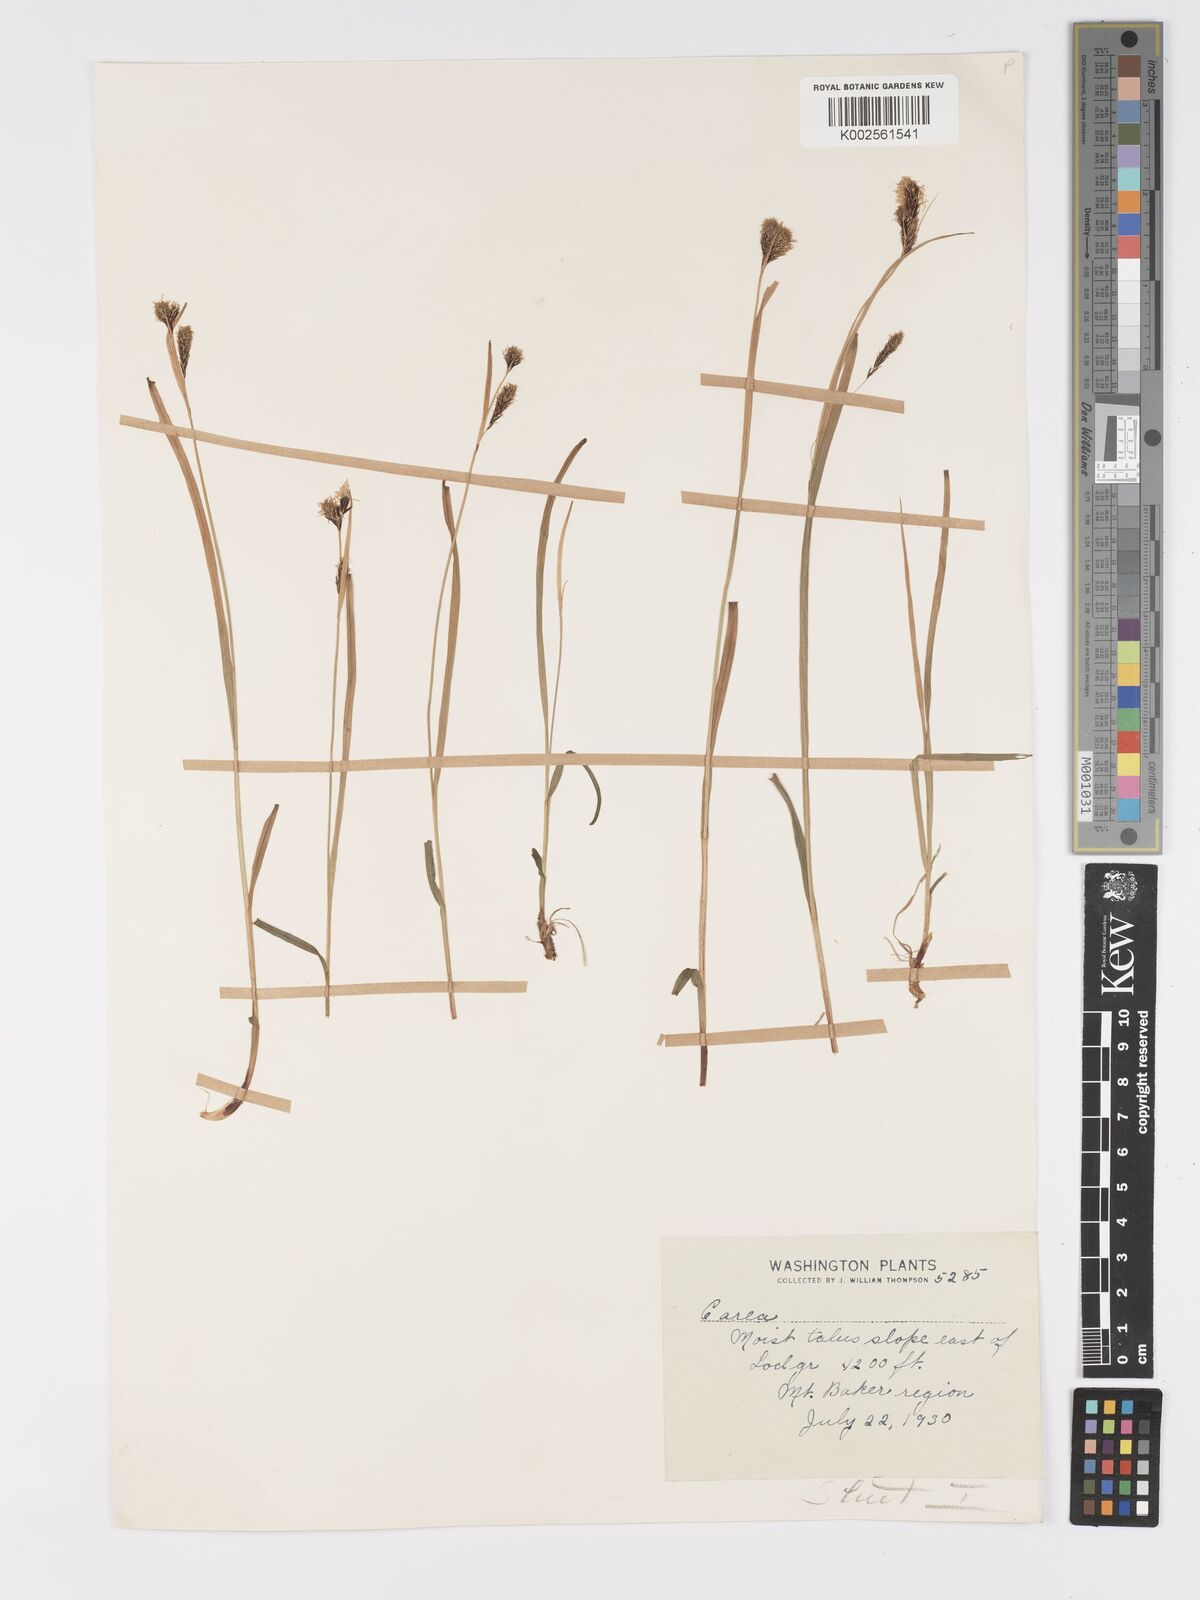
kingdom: Plantae
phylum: Tracheophyta
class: Liliopsida
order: Poales
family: Cyperaceae
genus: Carex
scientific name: Carex spectabilis
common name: Northwestern showy sedge
